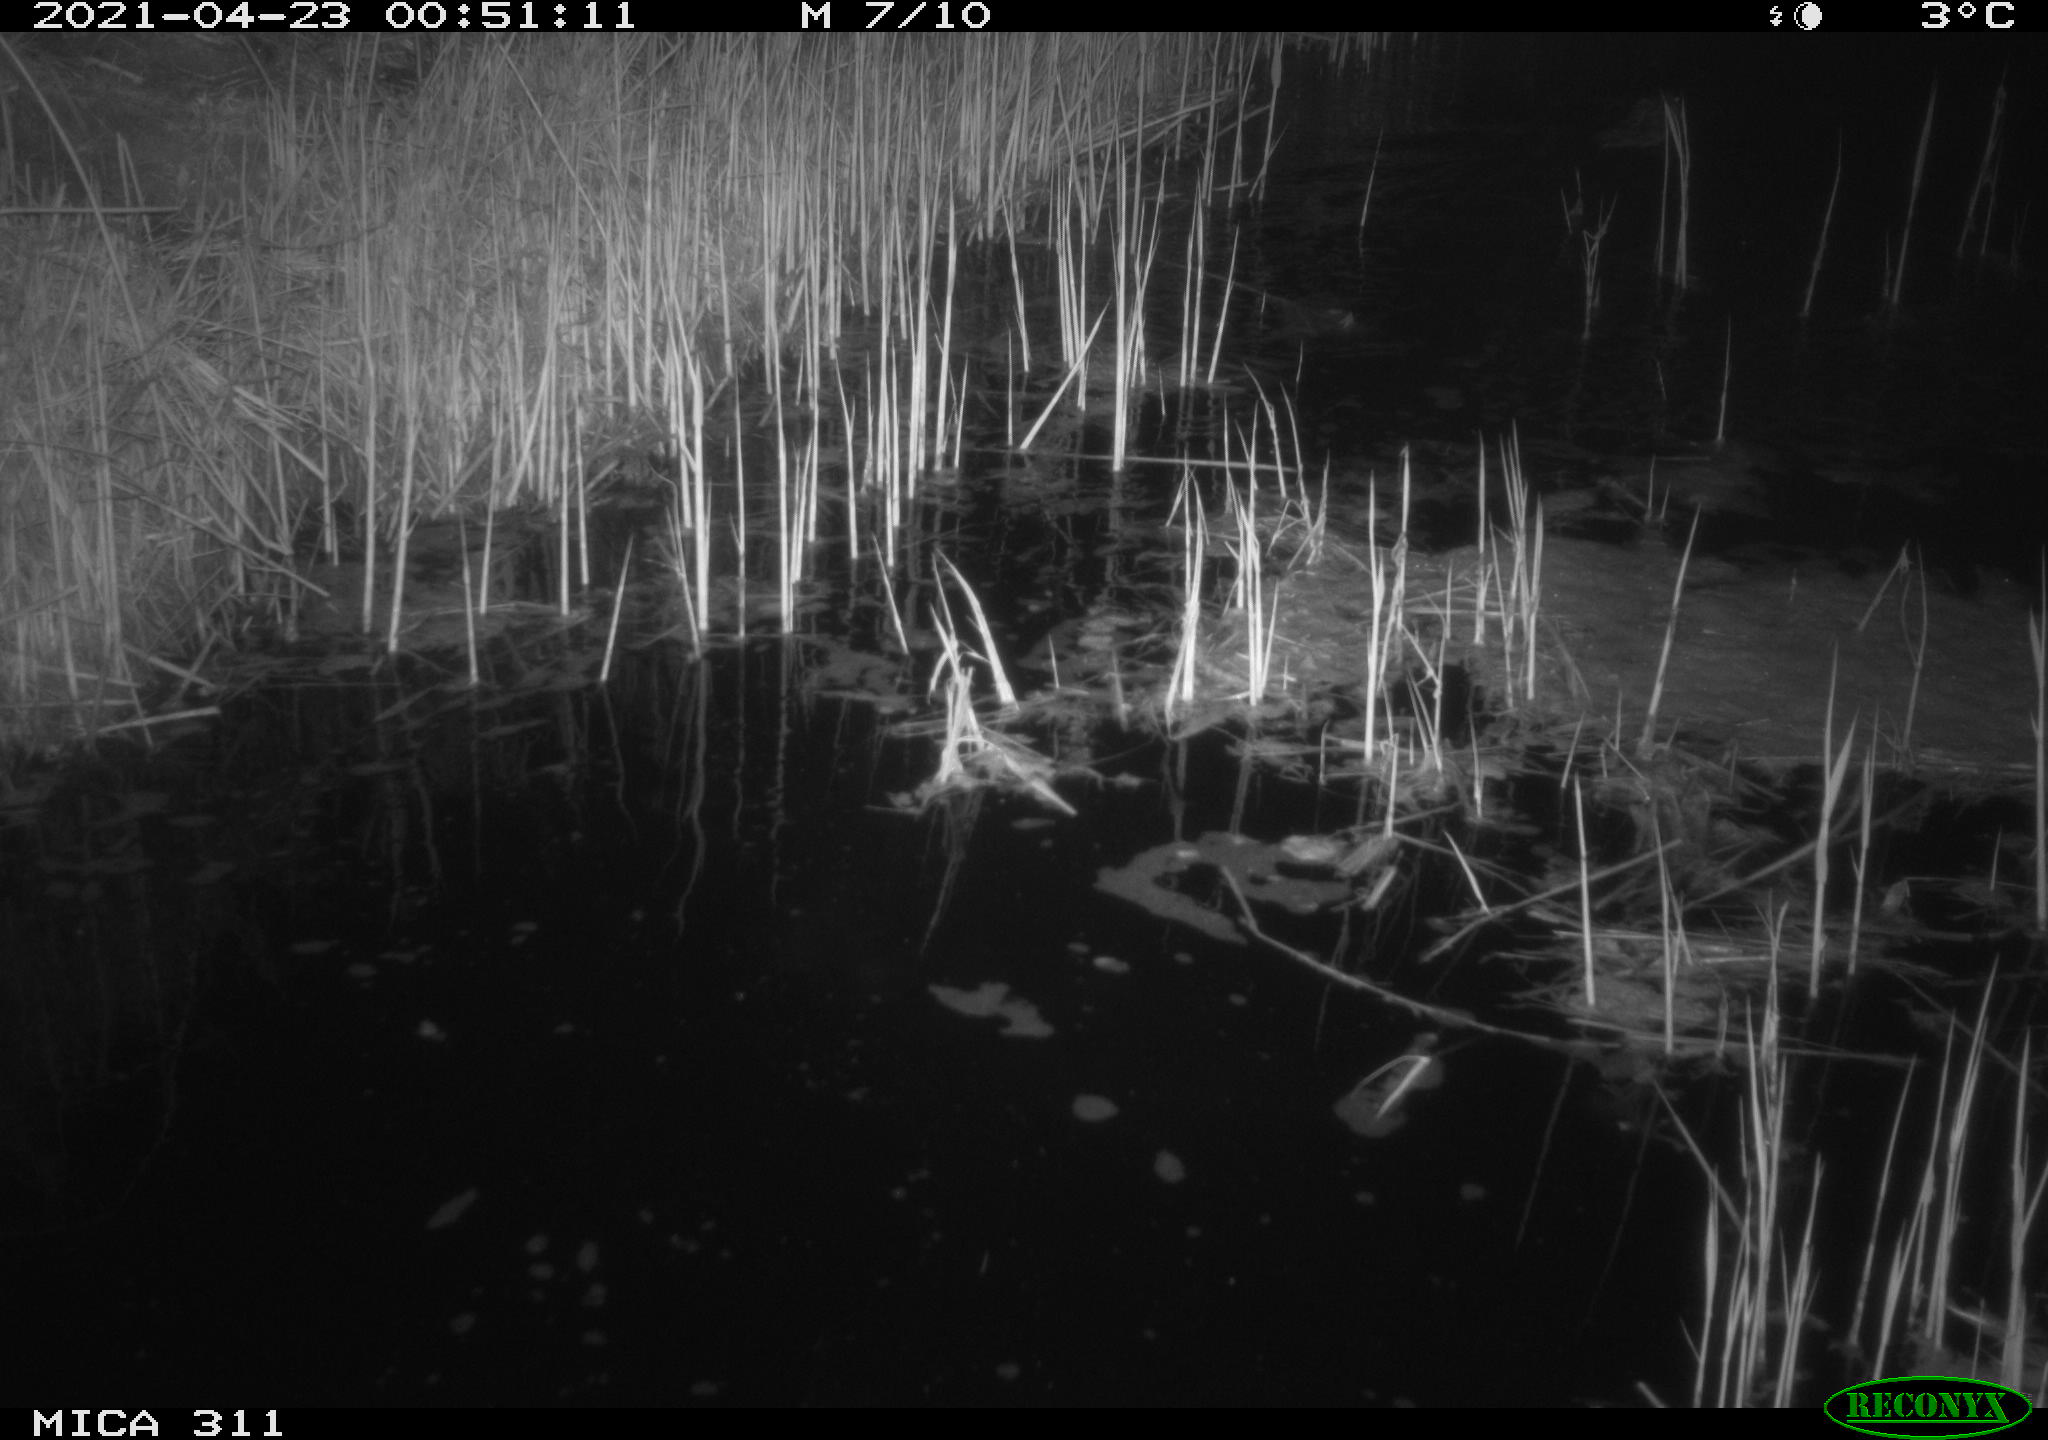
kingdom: Animalia
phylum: Chordata
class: Mammalia
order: Rodentia
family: Cricetidae
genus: Ondatra
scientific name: Ondatra zibethicus
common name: Muskrat
